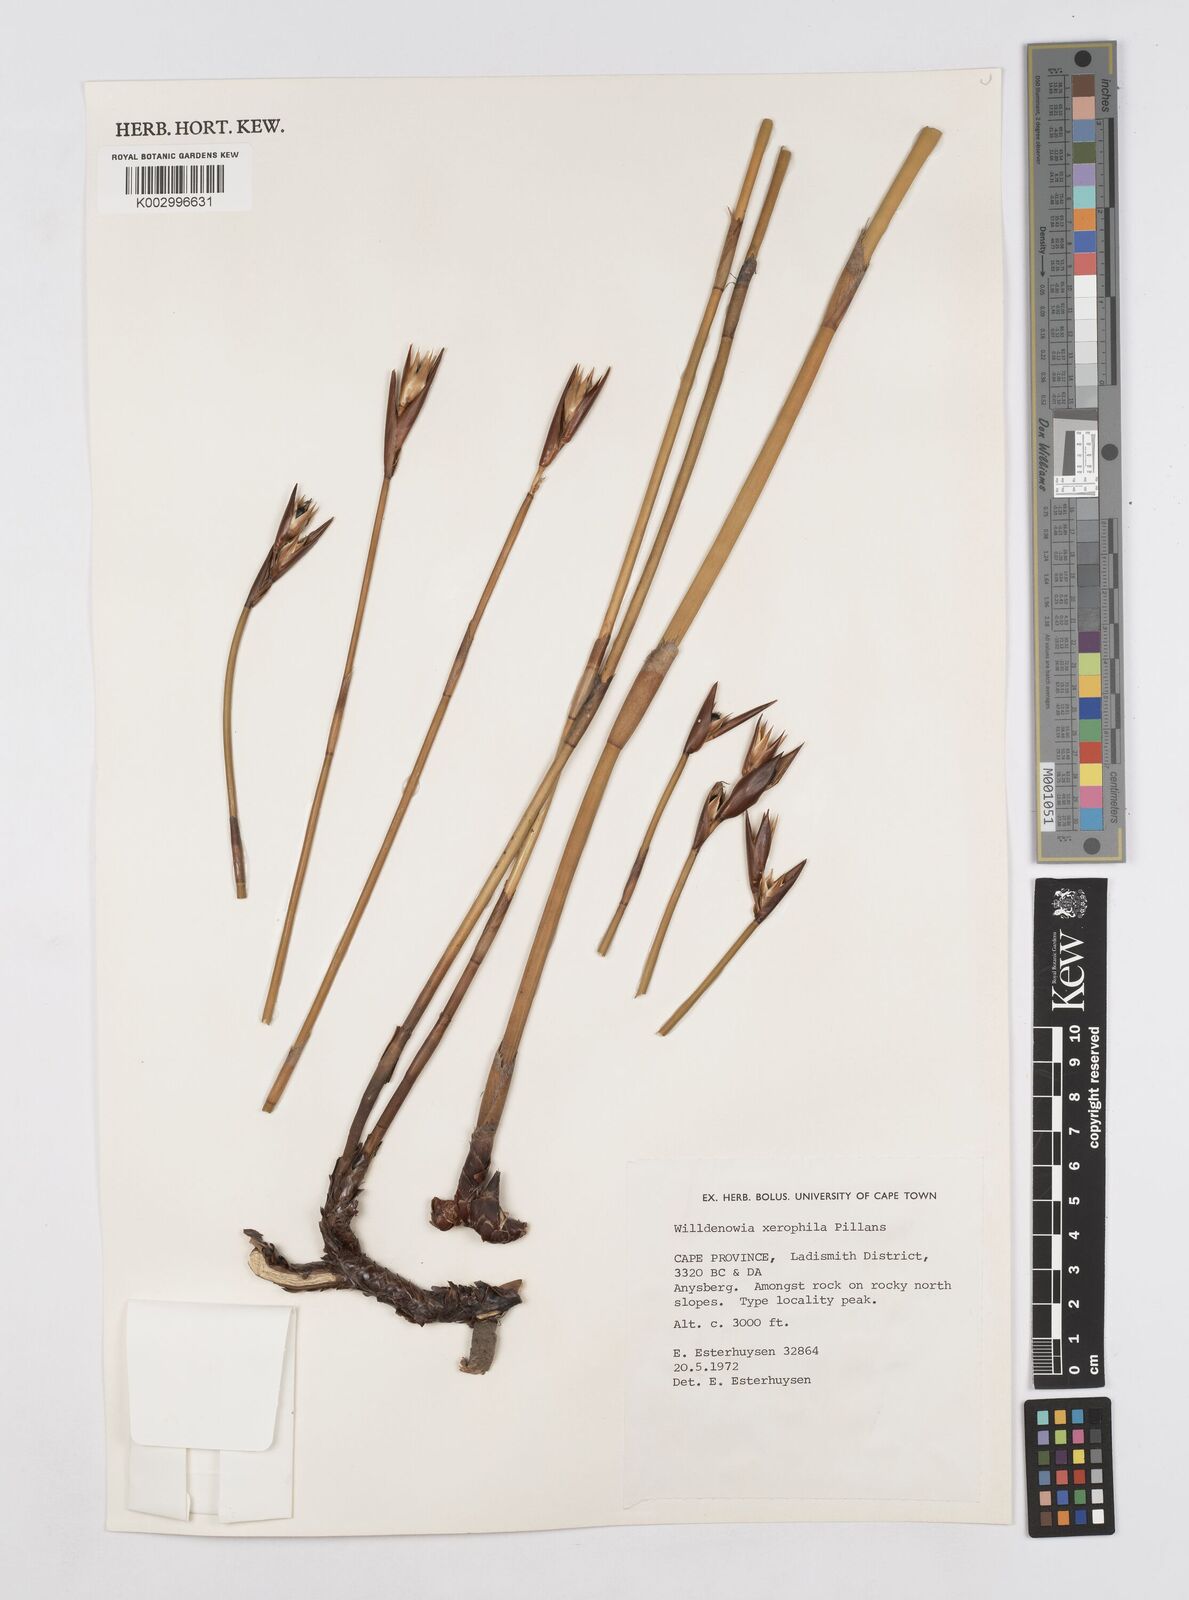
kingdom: Plantae
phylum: Tracheophyta
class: Liliopsida
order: Poales
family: Restionaceae
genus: Ceratocaryum
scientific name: Ceratocaryum xerophilum
